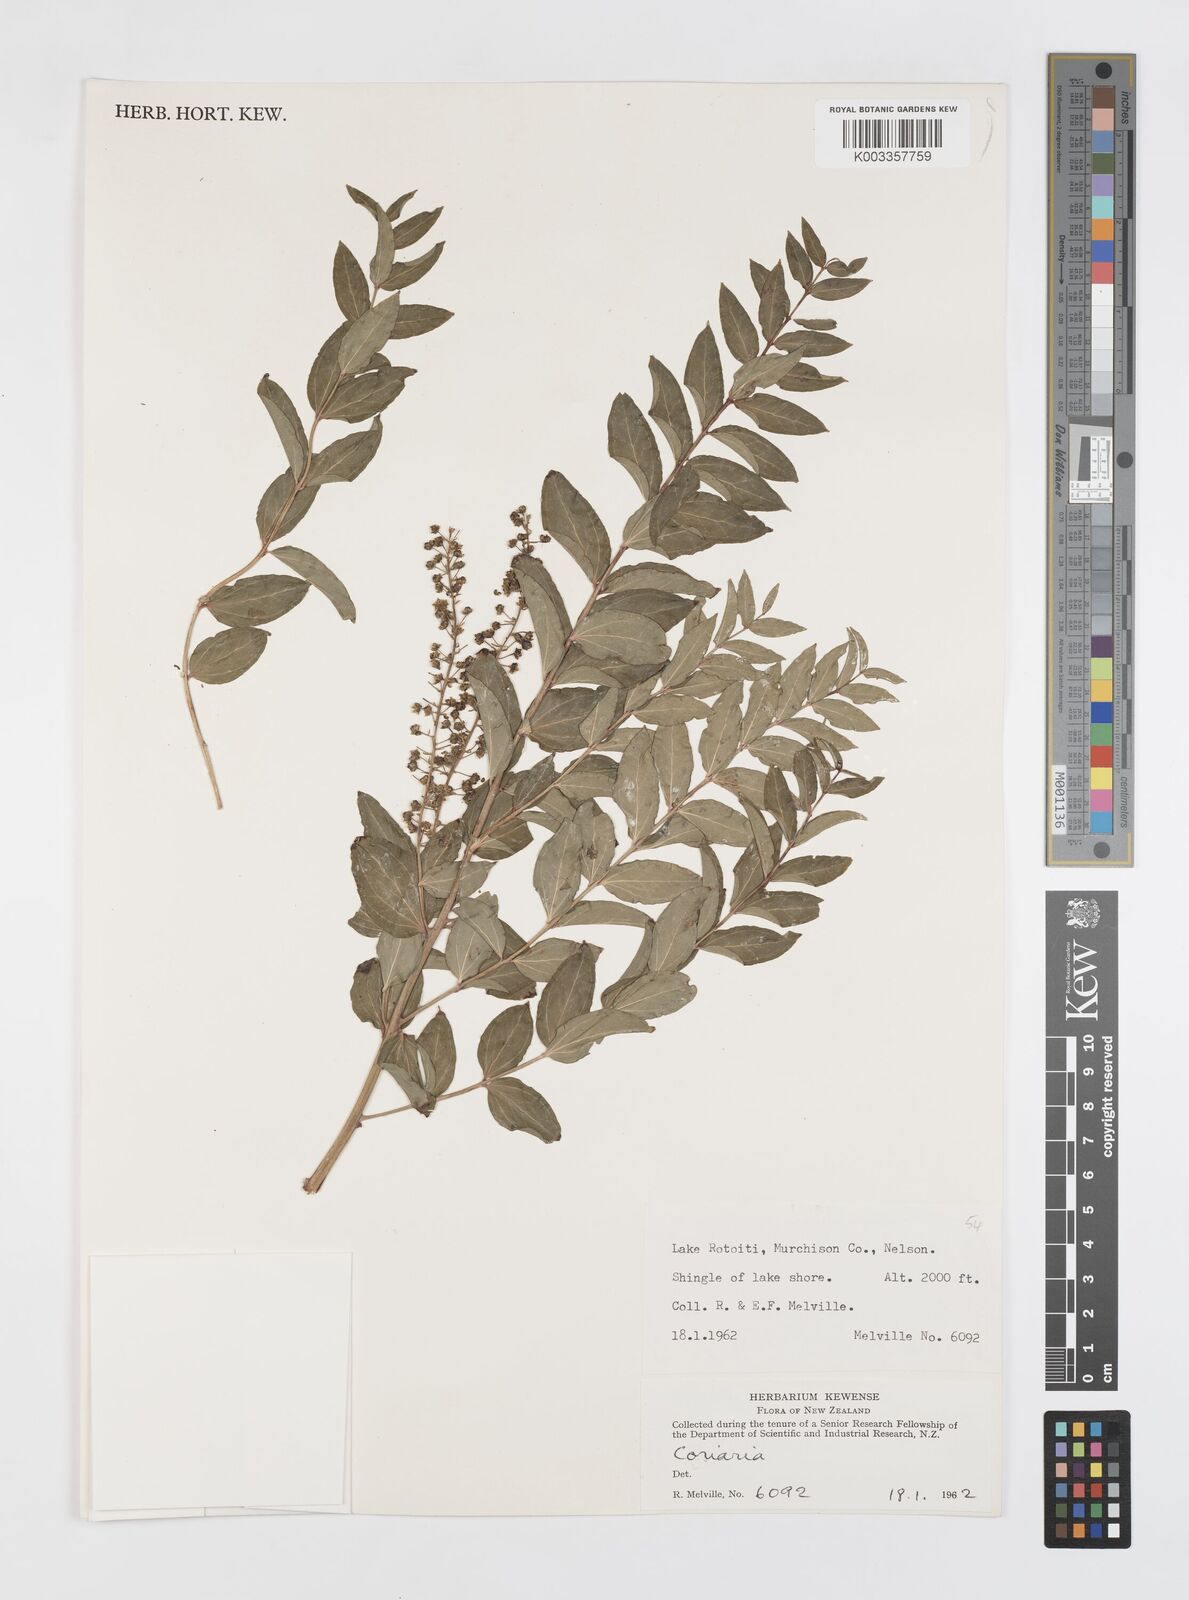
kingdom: Plantae
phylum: Tracheophyta
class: Magnoliopsida
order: Cucurbitales
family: Coriariaceae
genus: Coriaria
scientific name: Coriaria
